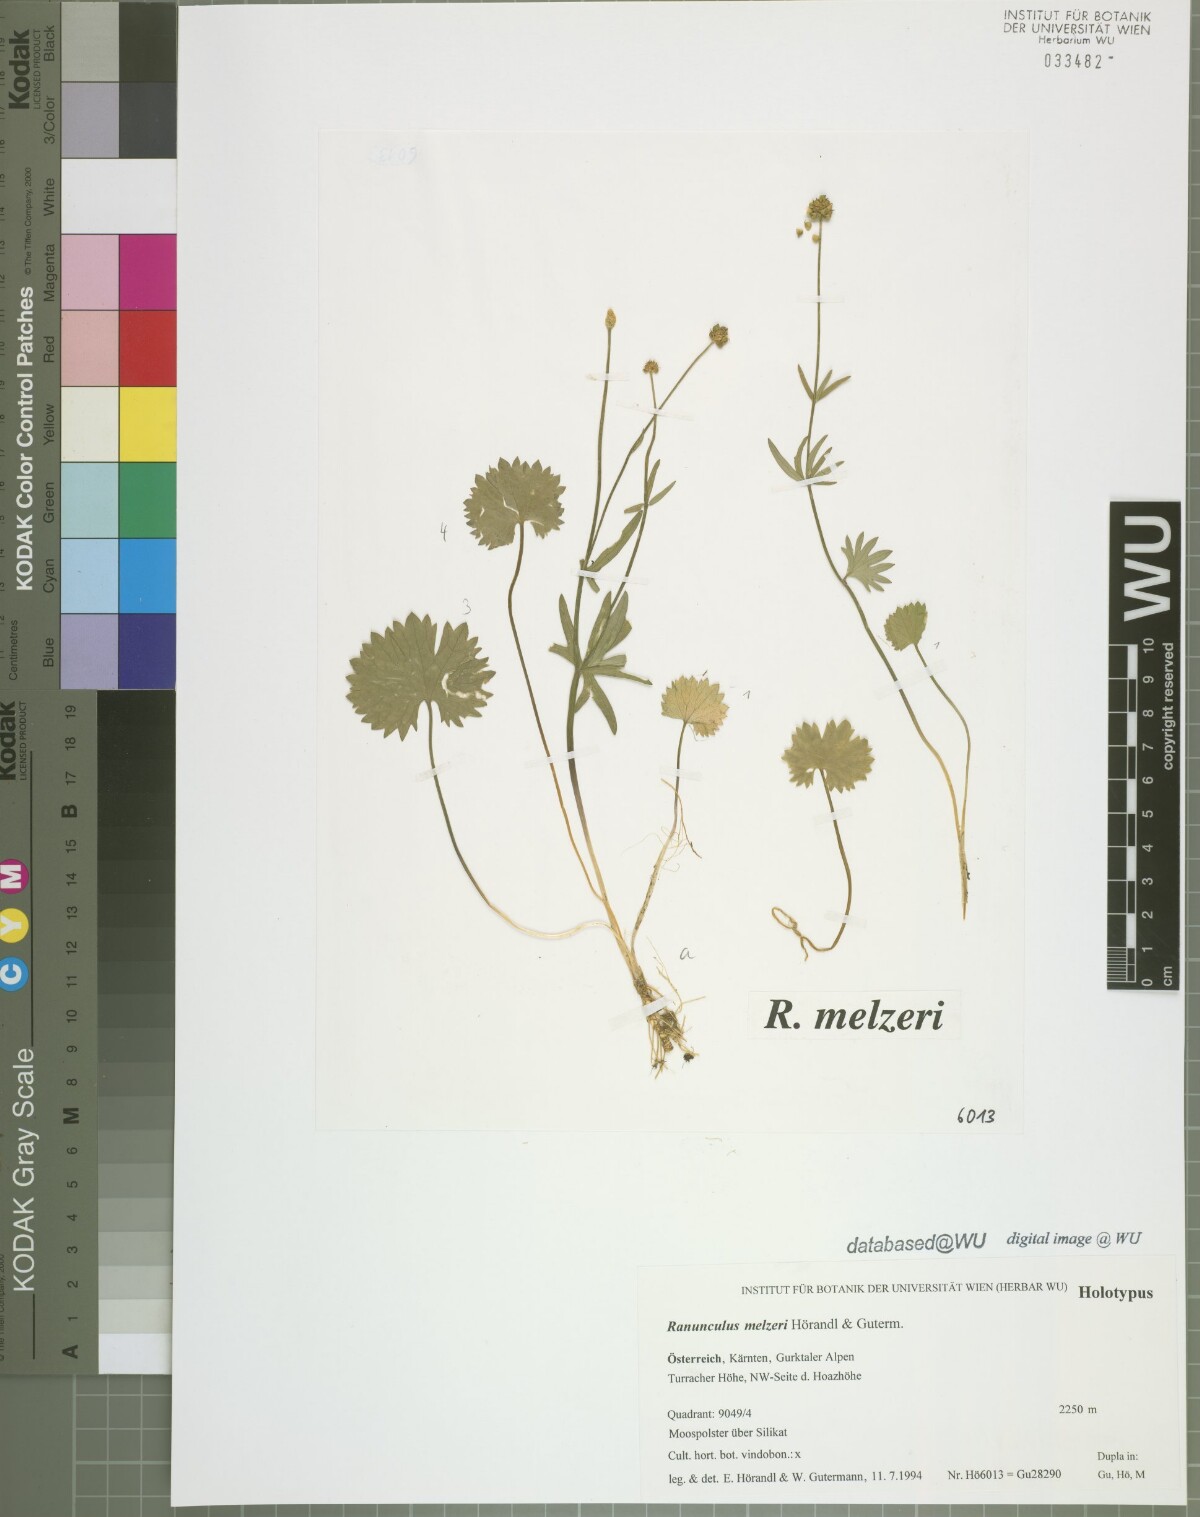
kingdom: Plantae
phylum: Tracheophyta
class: Magnoliopsida
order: Ranunculales
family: Ranunculaceae
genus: Ranunculus
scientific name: Ranunculus melzeri
